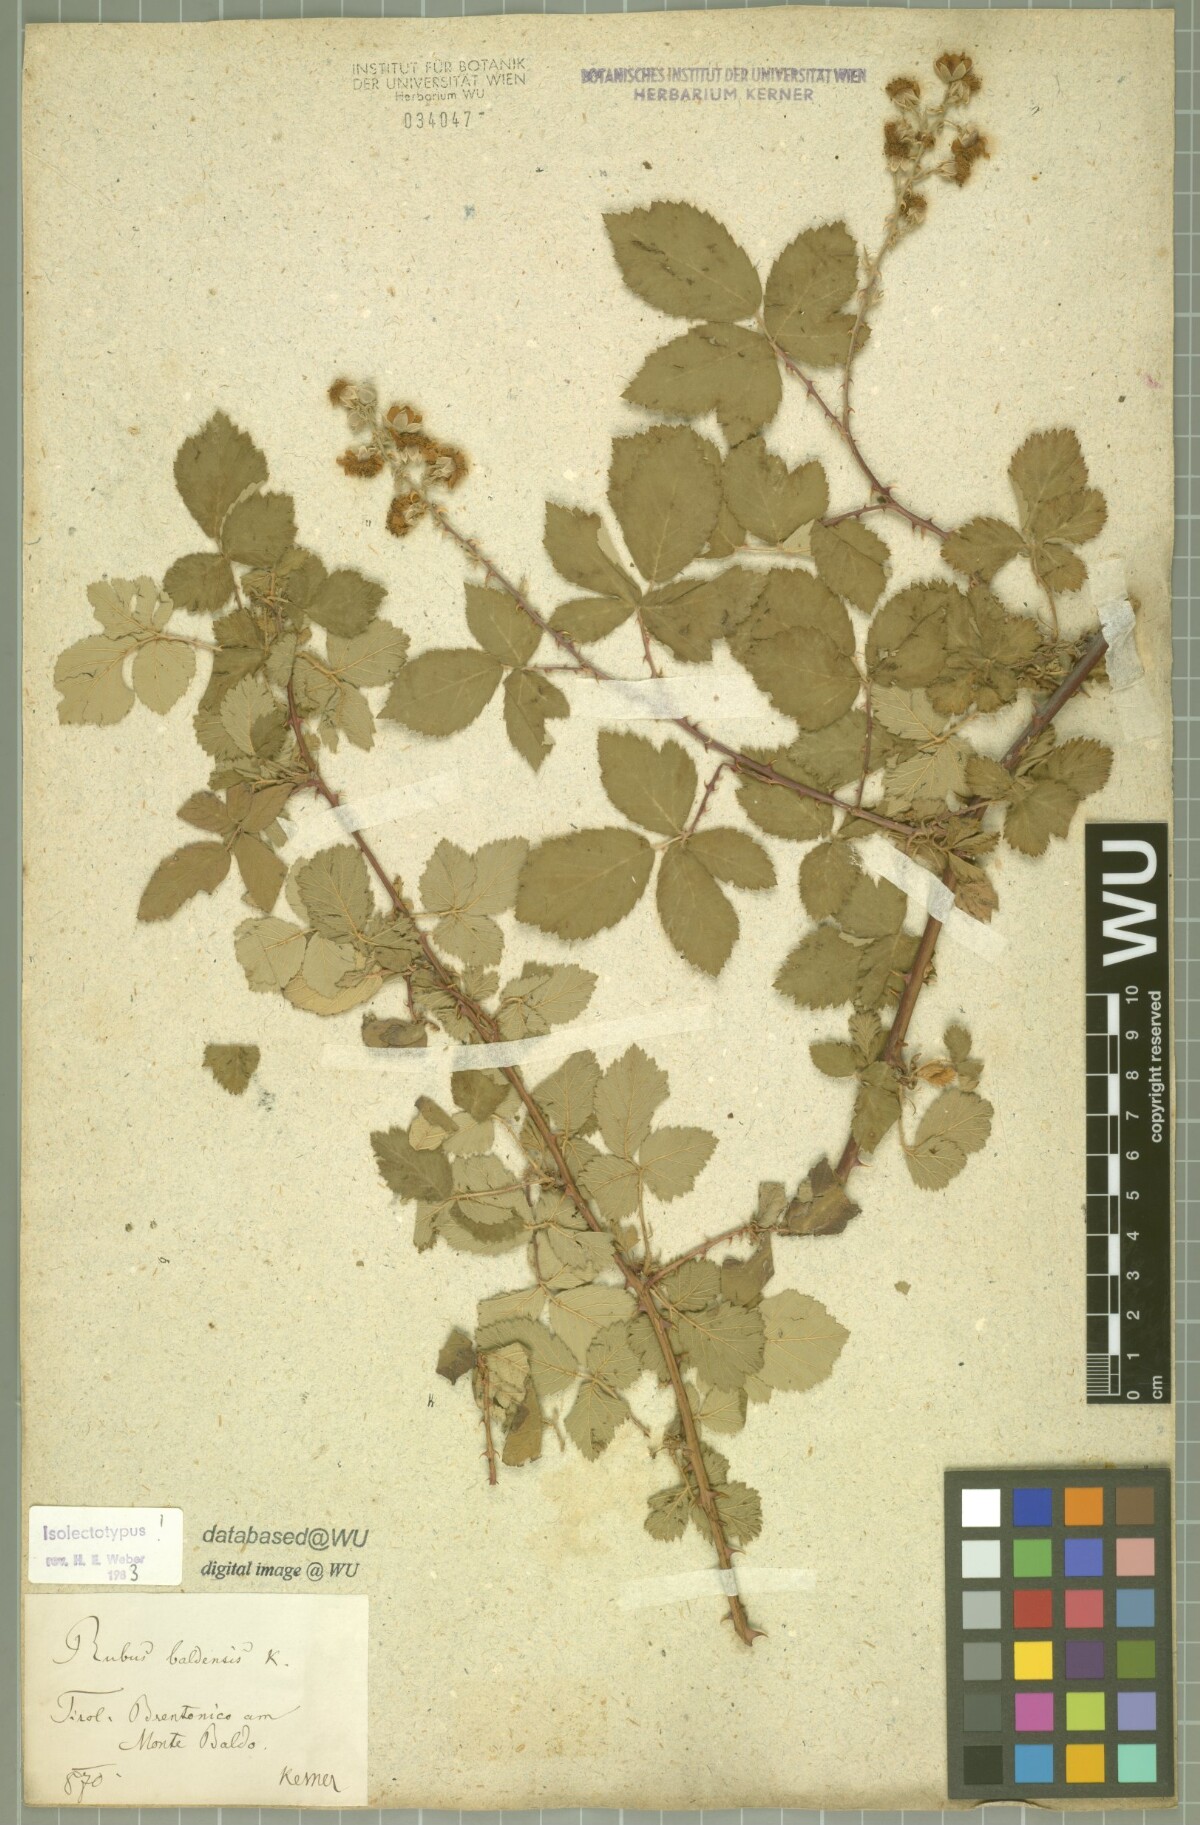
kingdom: Plantae
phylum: Tracheophyta
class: Magnoliopsida
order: Rosales
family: Rosaceae
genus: Rubus
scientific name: Rubus baldensis
